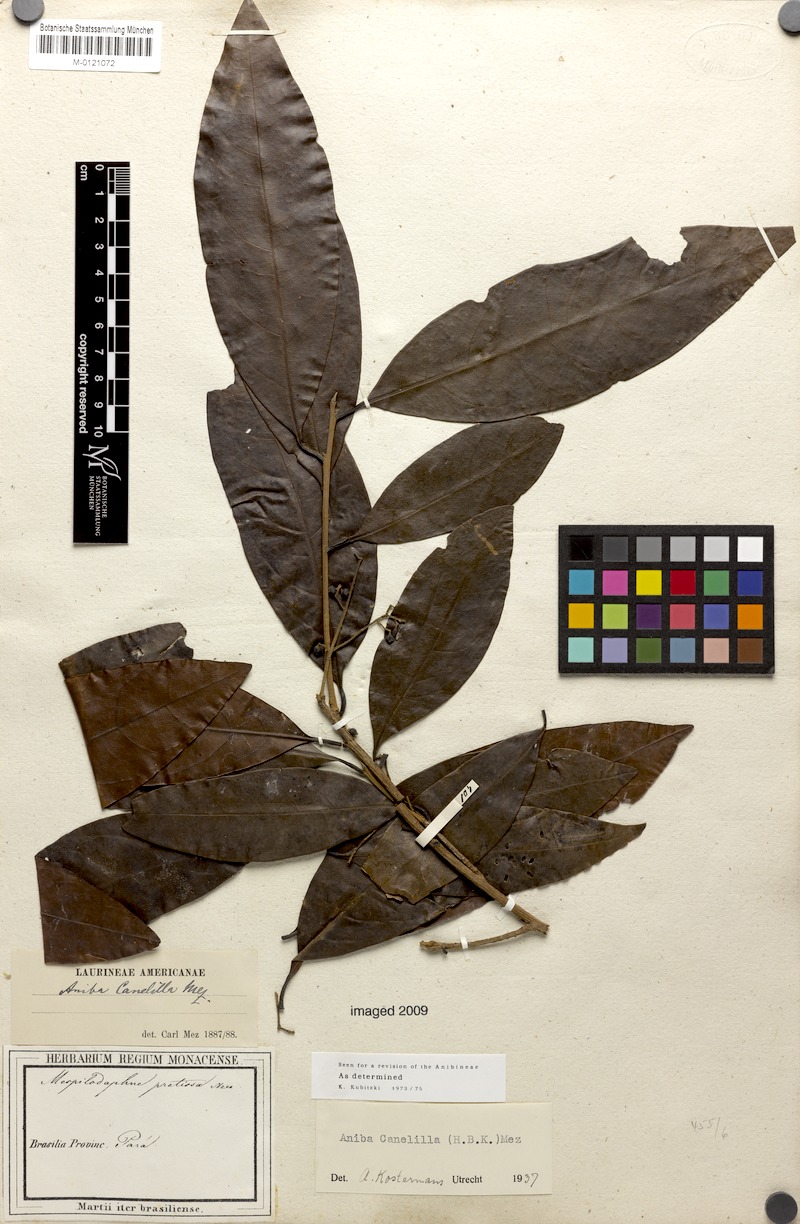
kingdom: Plantae
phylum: Tracheophyta
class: Magnoliopsida
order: Laurales
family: Lauraceae
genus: Aniba
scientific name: Aniba canelilla
